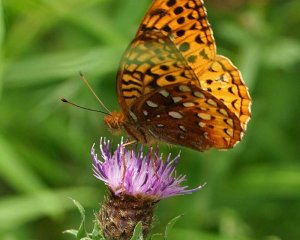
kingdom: Animalia
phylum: Arthropoda
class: Insecta
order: Lepidoptera
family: Nymphalidae
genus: Speyeria
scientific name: Speyeria cybele
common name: Great Spangled Fritillary
